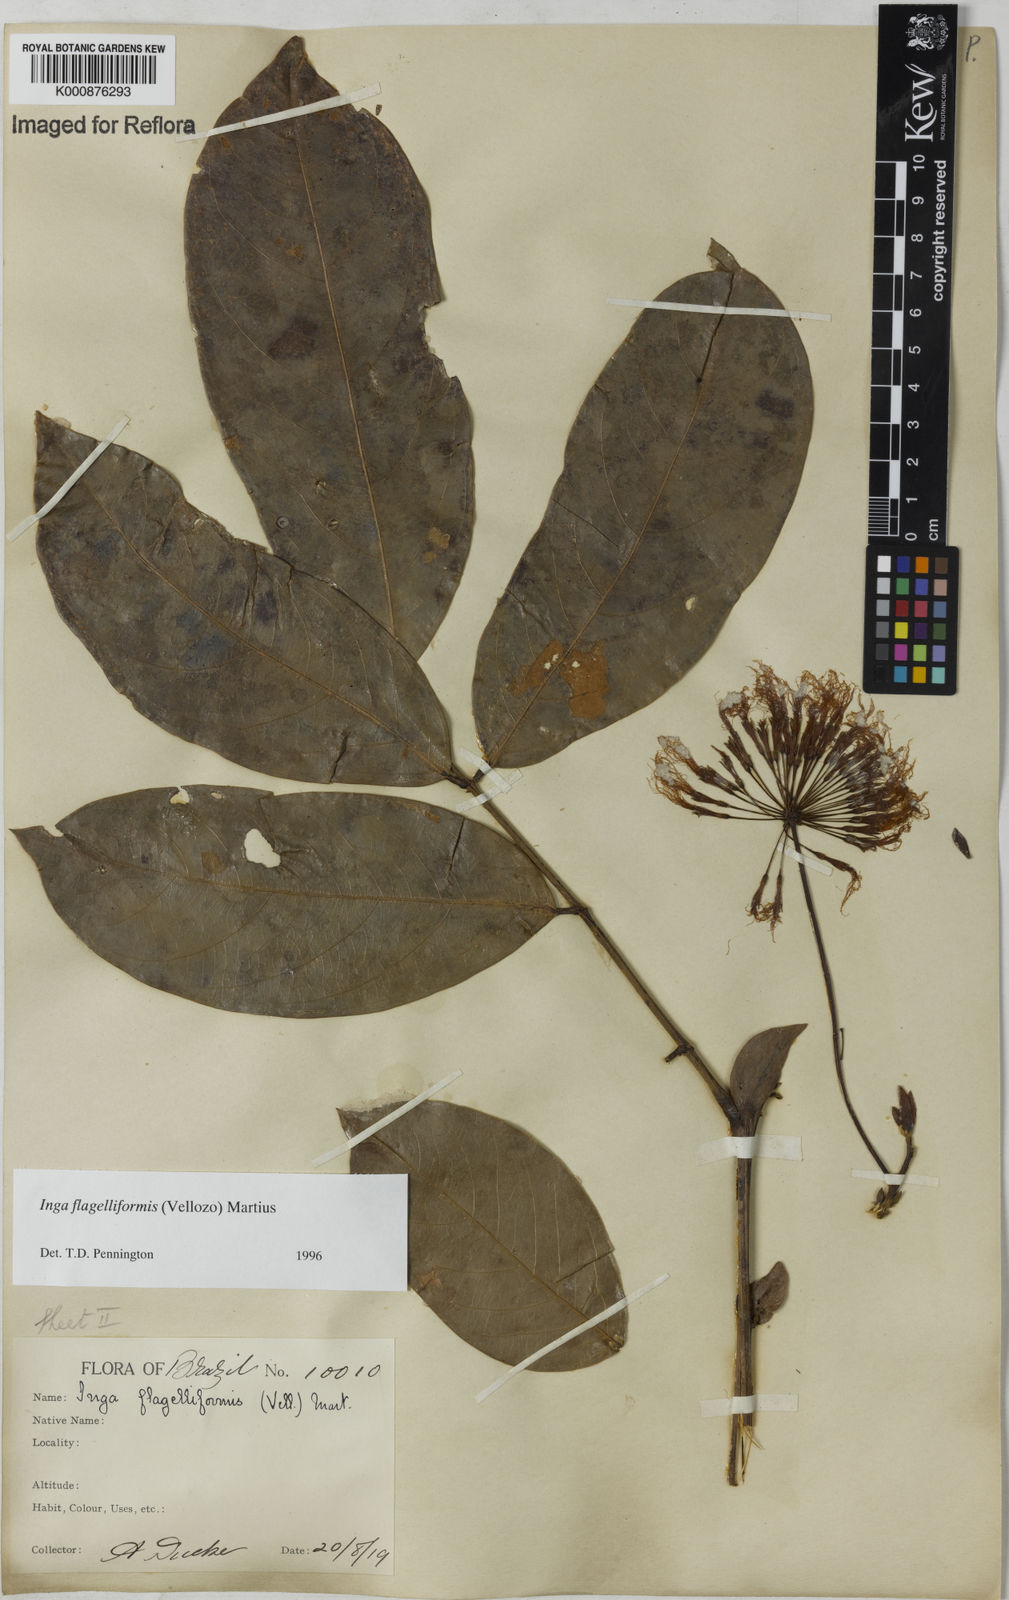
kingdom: Plantae
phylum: Tracheophyta
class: Magnoliopsida
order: Fabales
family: Fabaceae
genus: Inga
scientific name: Inga flagelliformis
